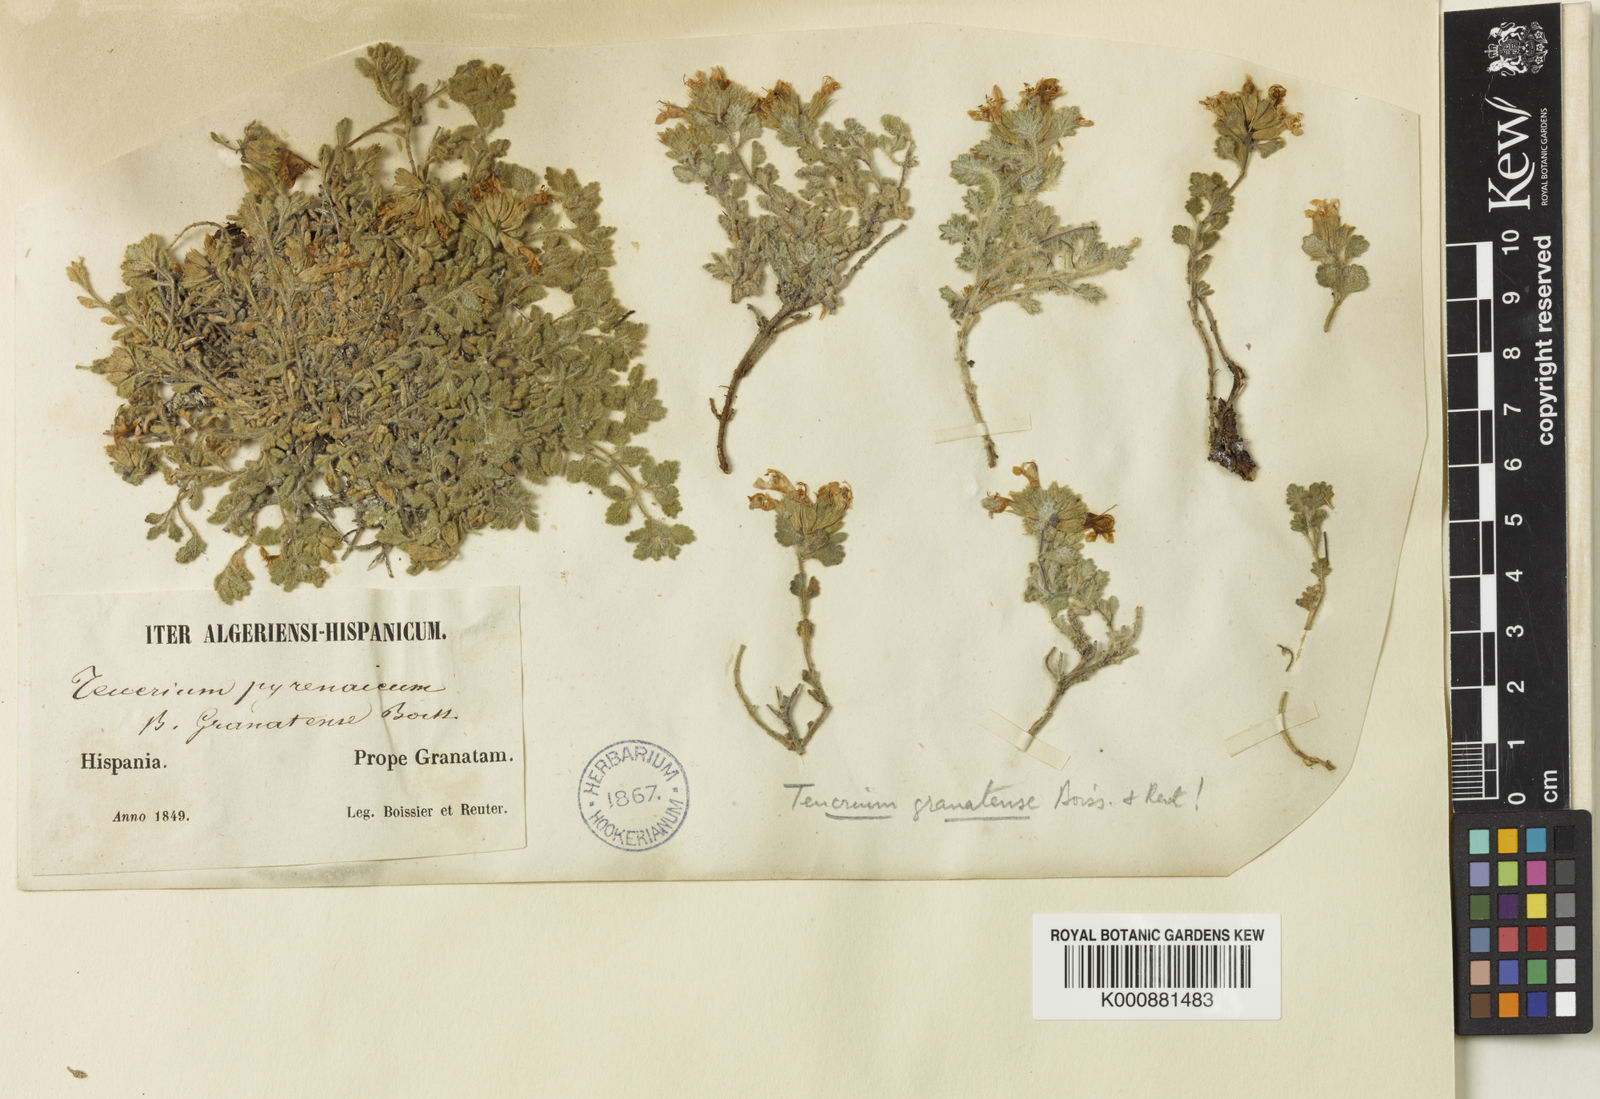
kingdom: Plantae
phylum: Tracheophyta
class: Magnoliopsida
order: Lamiales
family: Lamiaceae
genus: Teucrium
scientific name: Teucrium pyrenaicum
